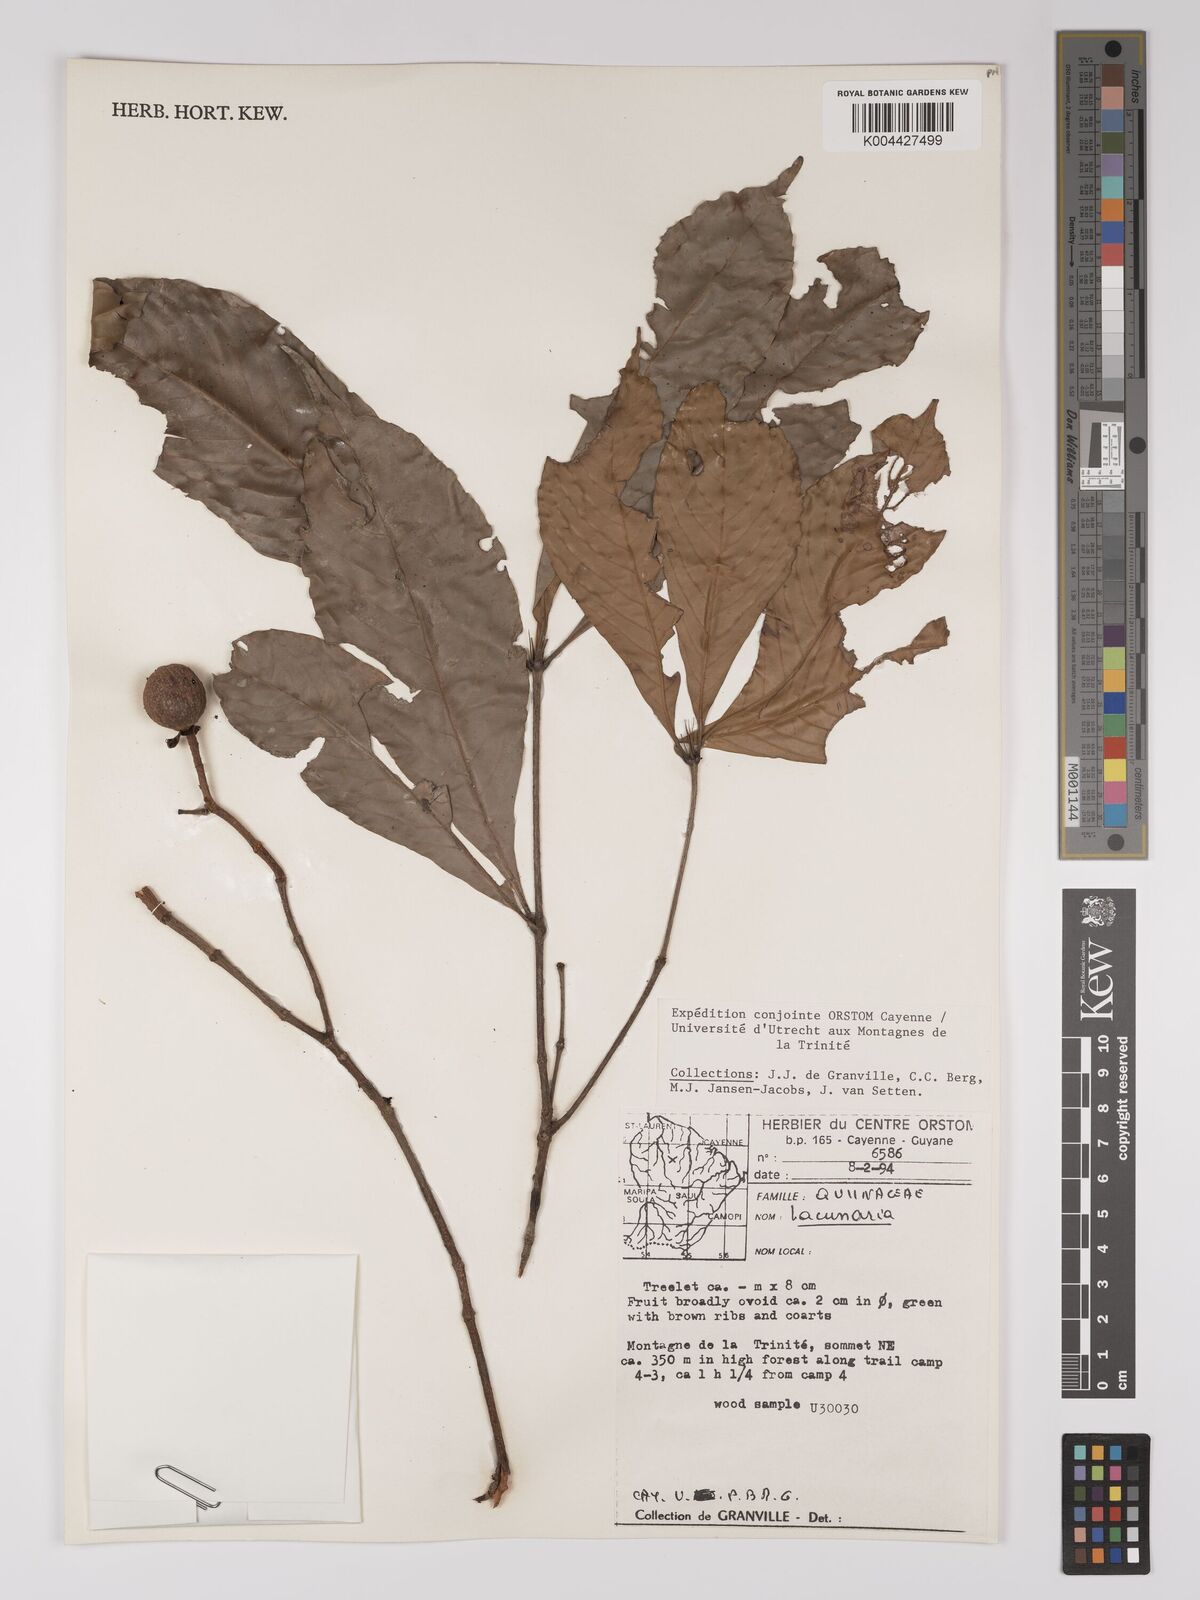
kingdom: Plantae
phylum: Tracheophyta
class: Magnoliopsida
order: Malpighiales
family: Quiinaceae
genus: Lacunaria
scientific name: Lacunaria
